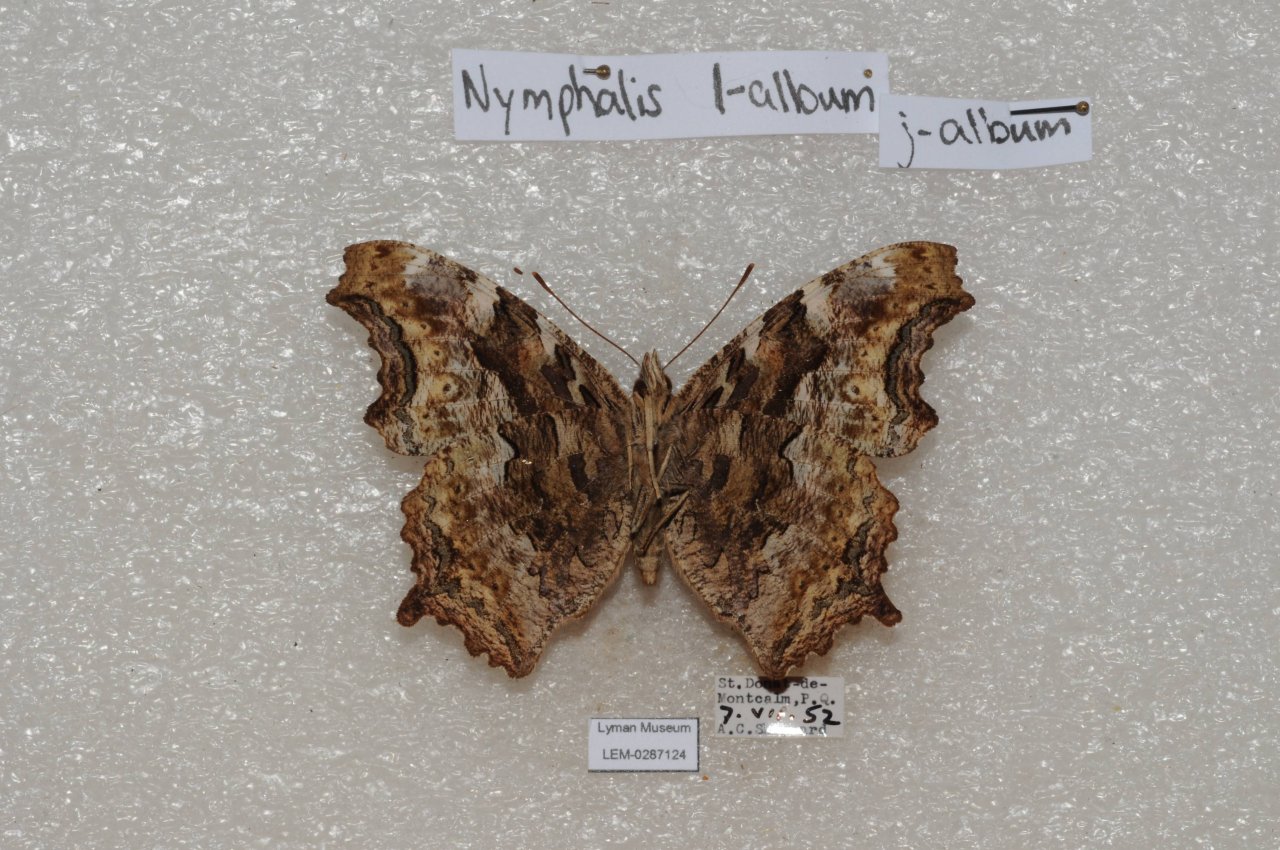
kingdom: Animalia
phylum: Arthropoda
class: Insecta
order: Lepidoptera
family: Nymphalidae
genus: Polygonia
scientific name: Polygonia vaualbum
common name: Compton Tortoiseshell
